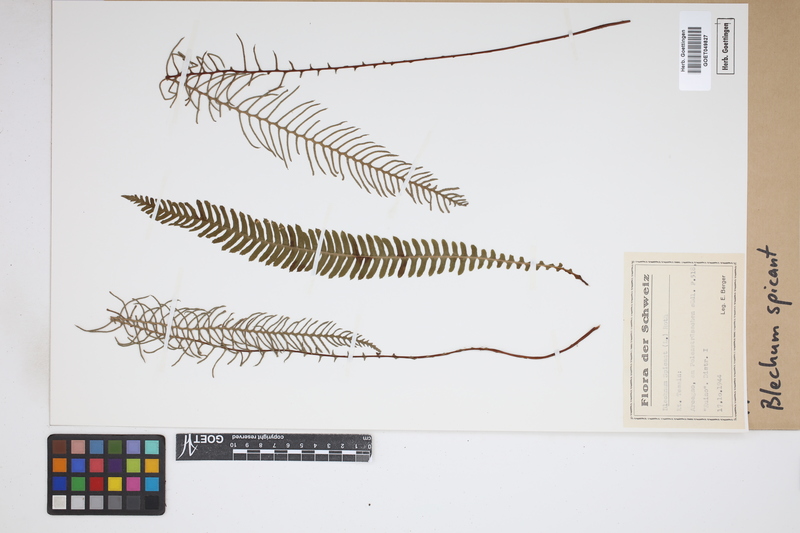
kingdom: Plantae
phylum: Tracheophyta
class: Polypodiopsida
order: Polypodiales
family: Blechnaceae
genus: Struthiopteris
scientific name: Struthiopteris spicant
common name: Deer fern
